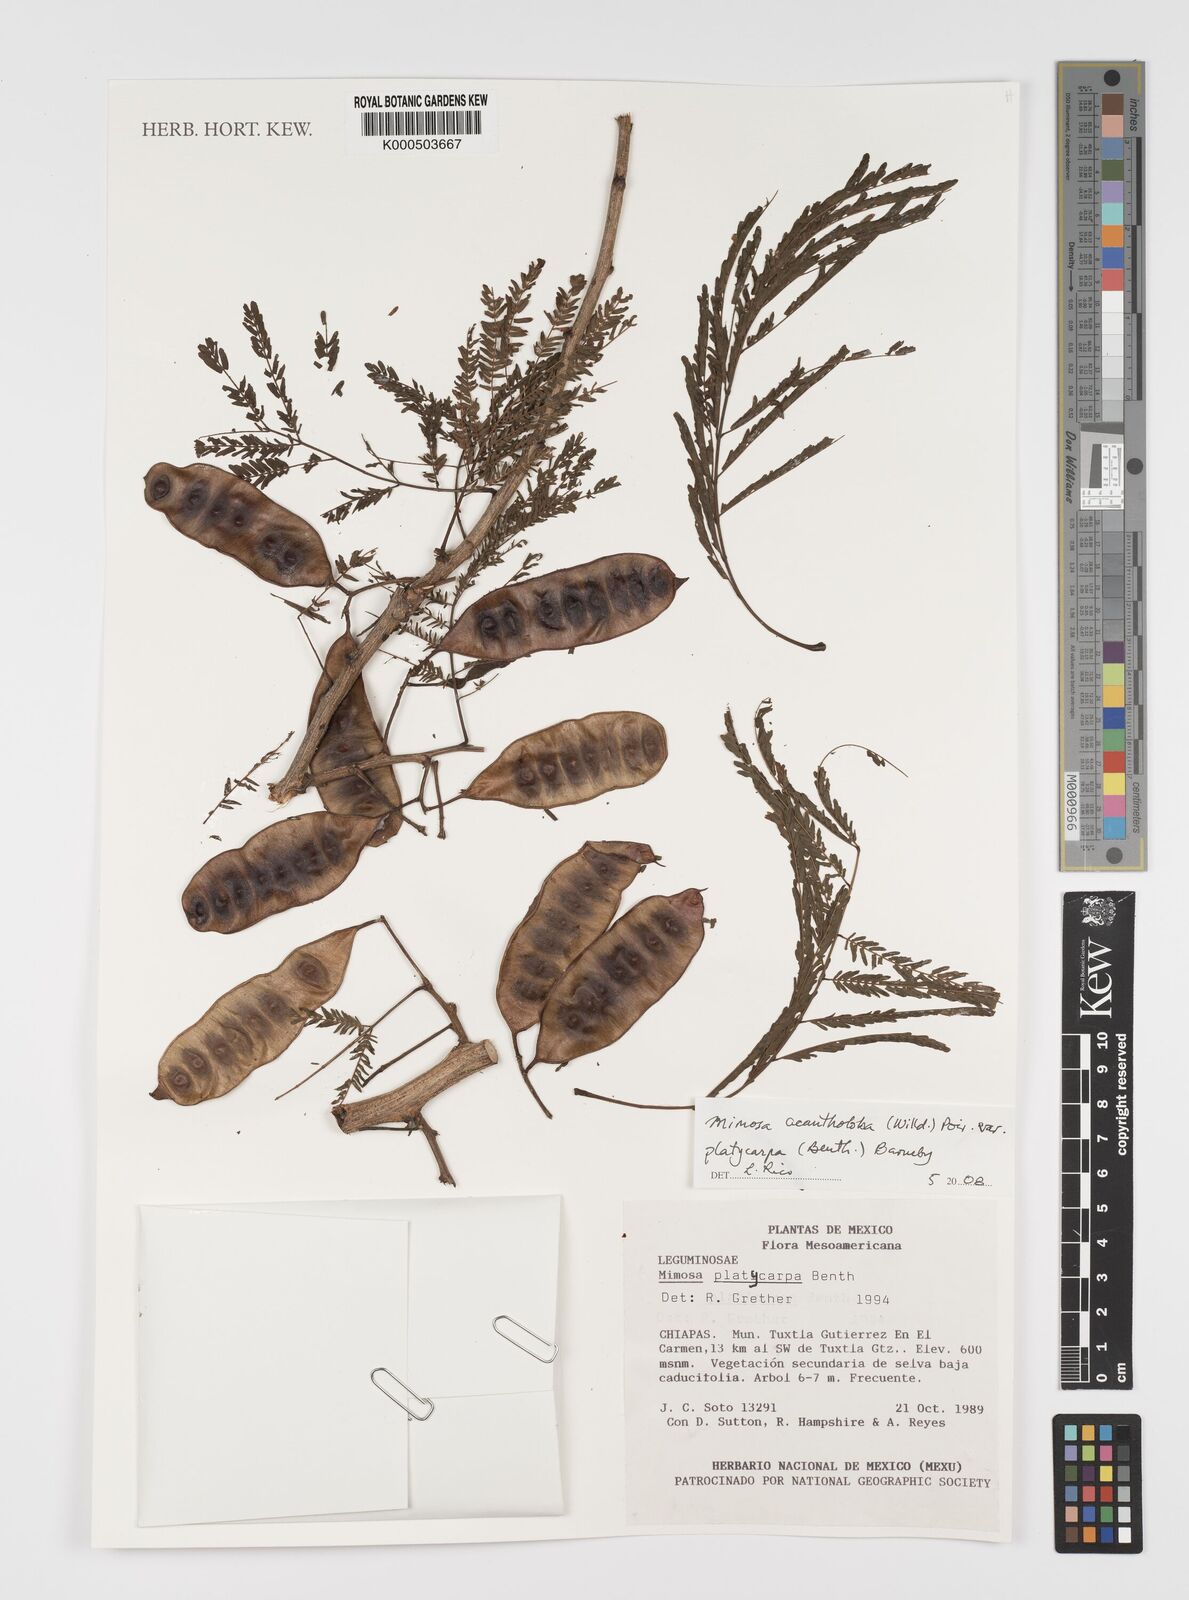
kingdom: Plantae
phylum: Tracheophyta
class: Magnoliopsida
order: Fabales
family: Fabaceae
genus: Mimosa
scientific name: Mimosa platycarpa
